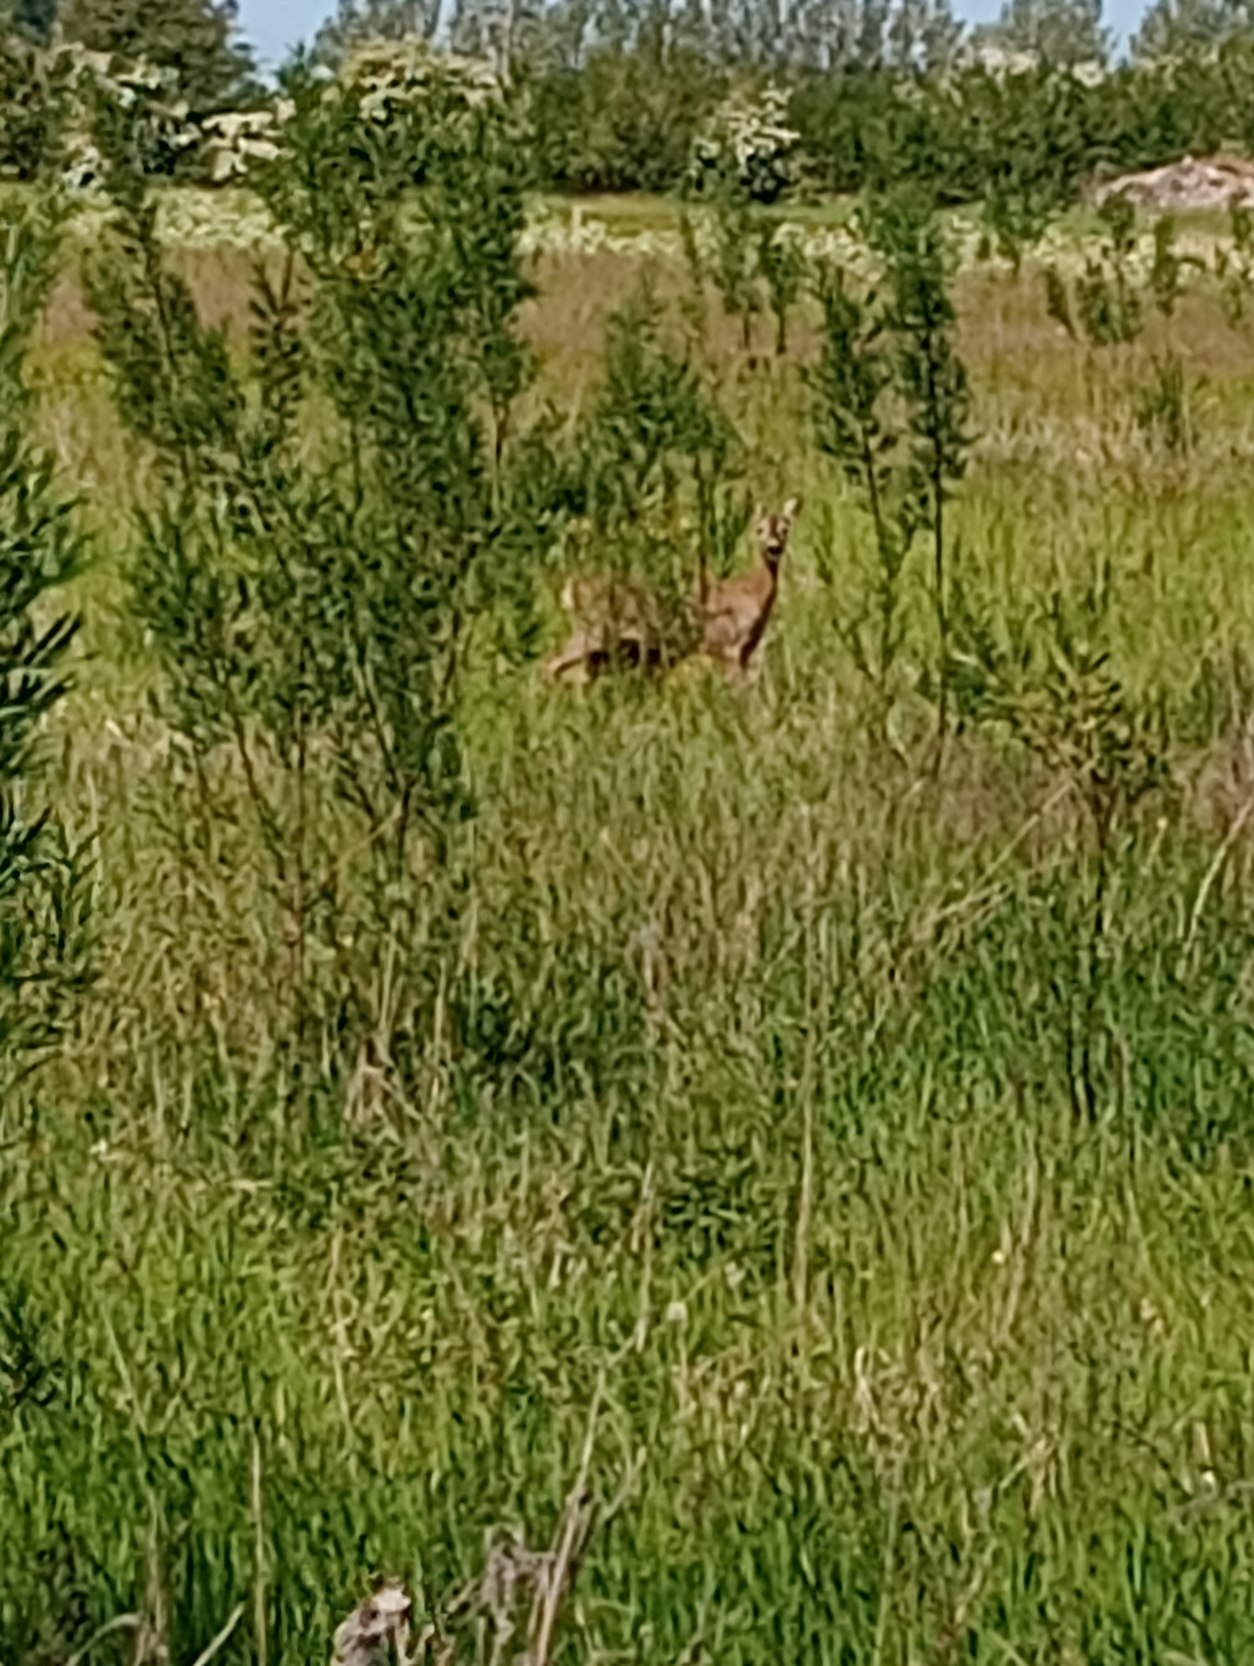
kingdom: Animalia
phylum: Chordata
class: Mammalia
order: Artiodactyla
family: Cervidae
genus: Capreolus
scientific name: Capreolus capreolus
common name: Rådyr
